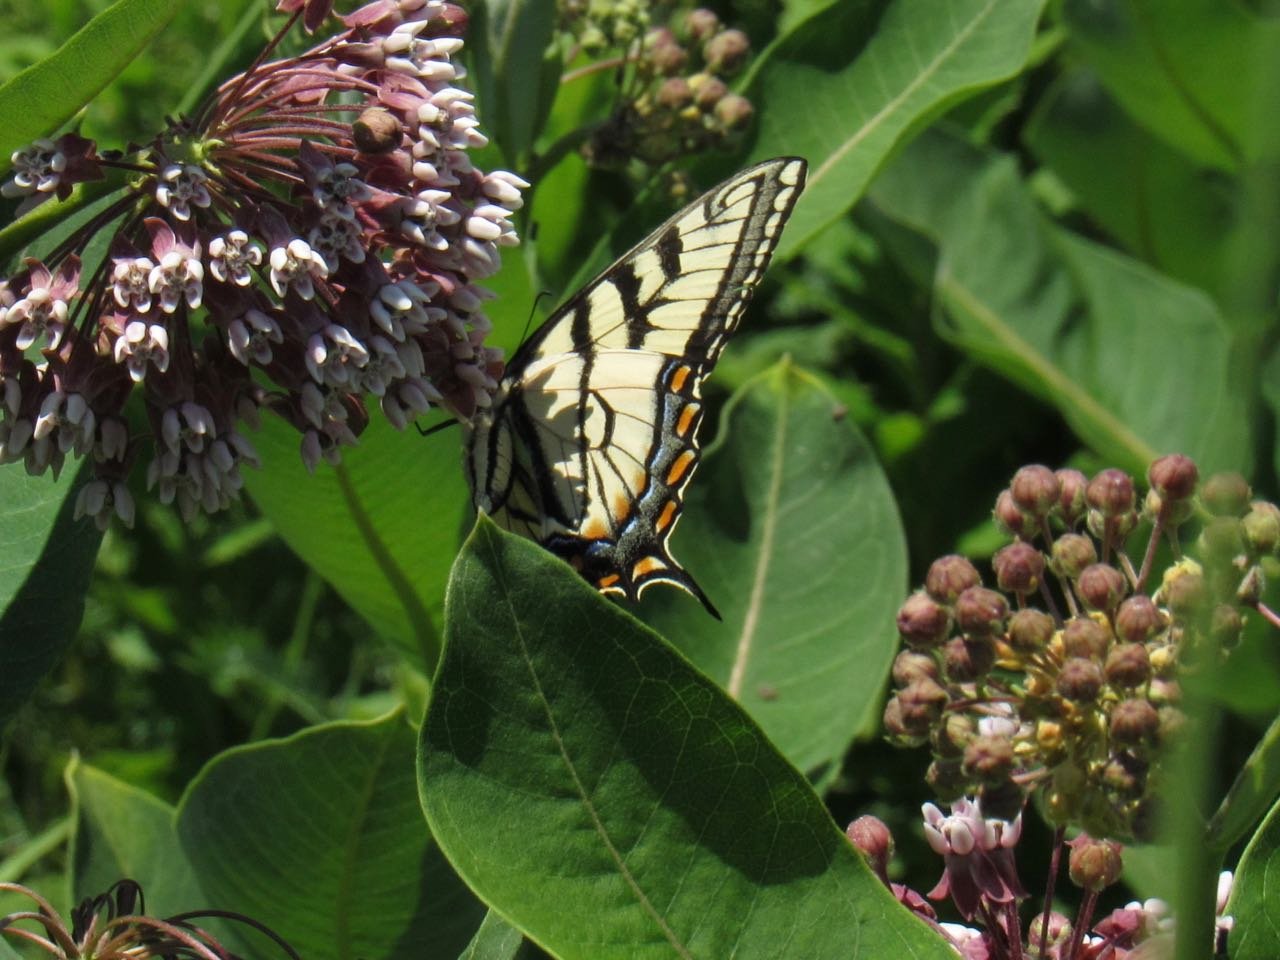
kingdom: Animalia
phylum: Arthropoda
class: Insecta
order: Lepidoptera
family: Papilionidae
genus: Pterourus
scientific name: Pterourus
